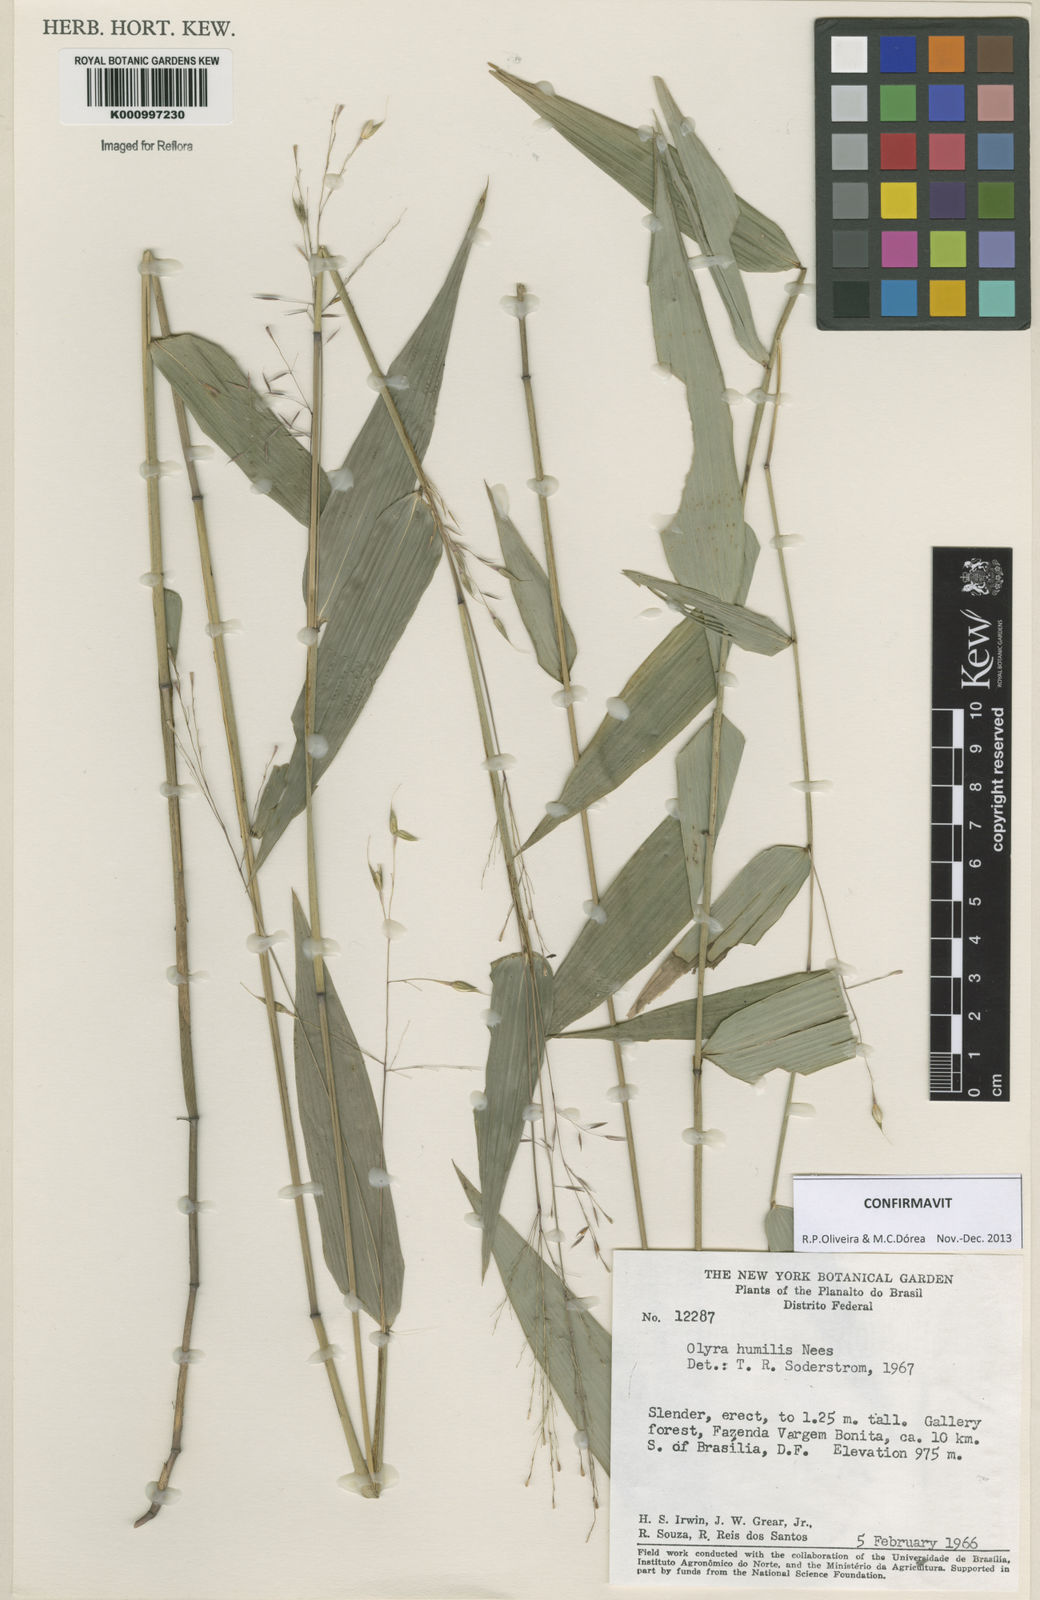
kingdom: Plantae
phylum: Tracheophyta
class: Liliopsida
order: Poales
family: Poaceae
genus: Olyra
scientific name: Olyra humilis
